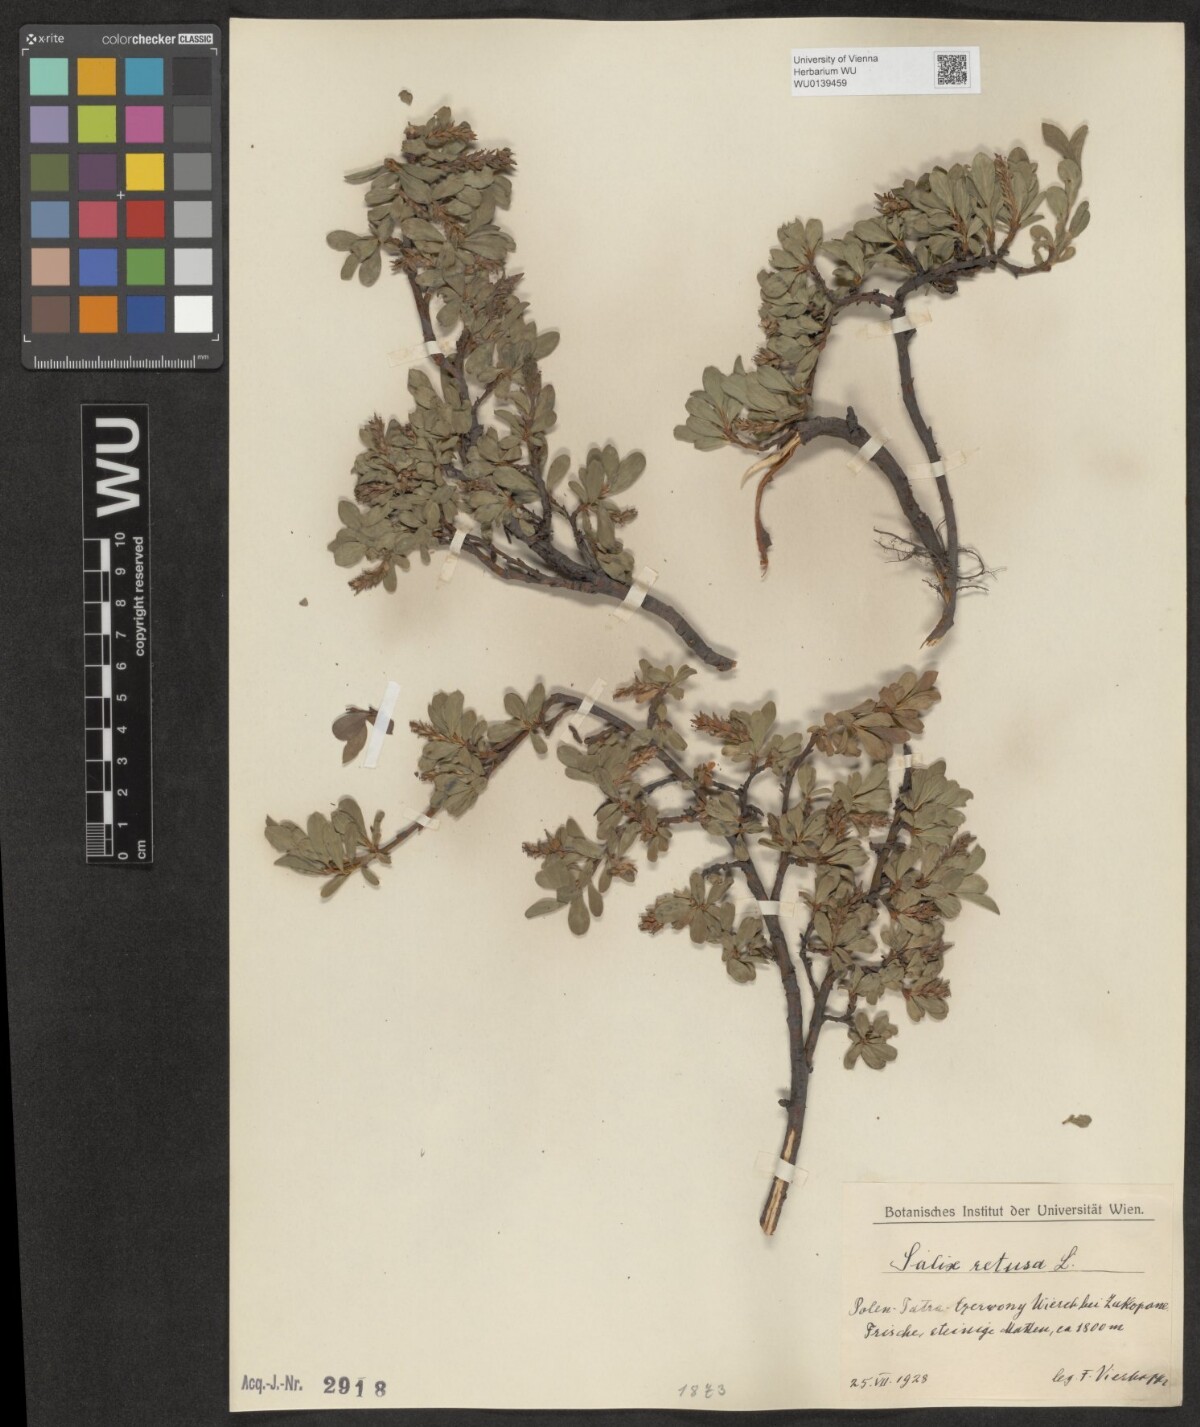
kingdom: Plantae
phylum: Tracheophyta
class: Magnoliopsida
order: Malpighiales
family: Salicaceae
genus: Salix
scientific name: Salix retusa
